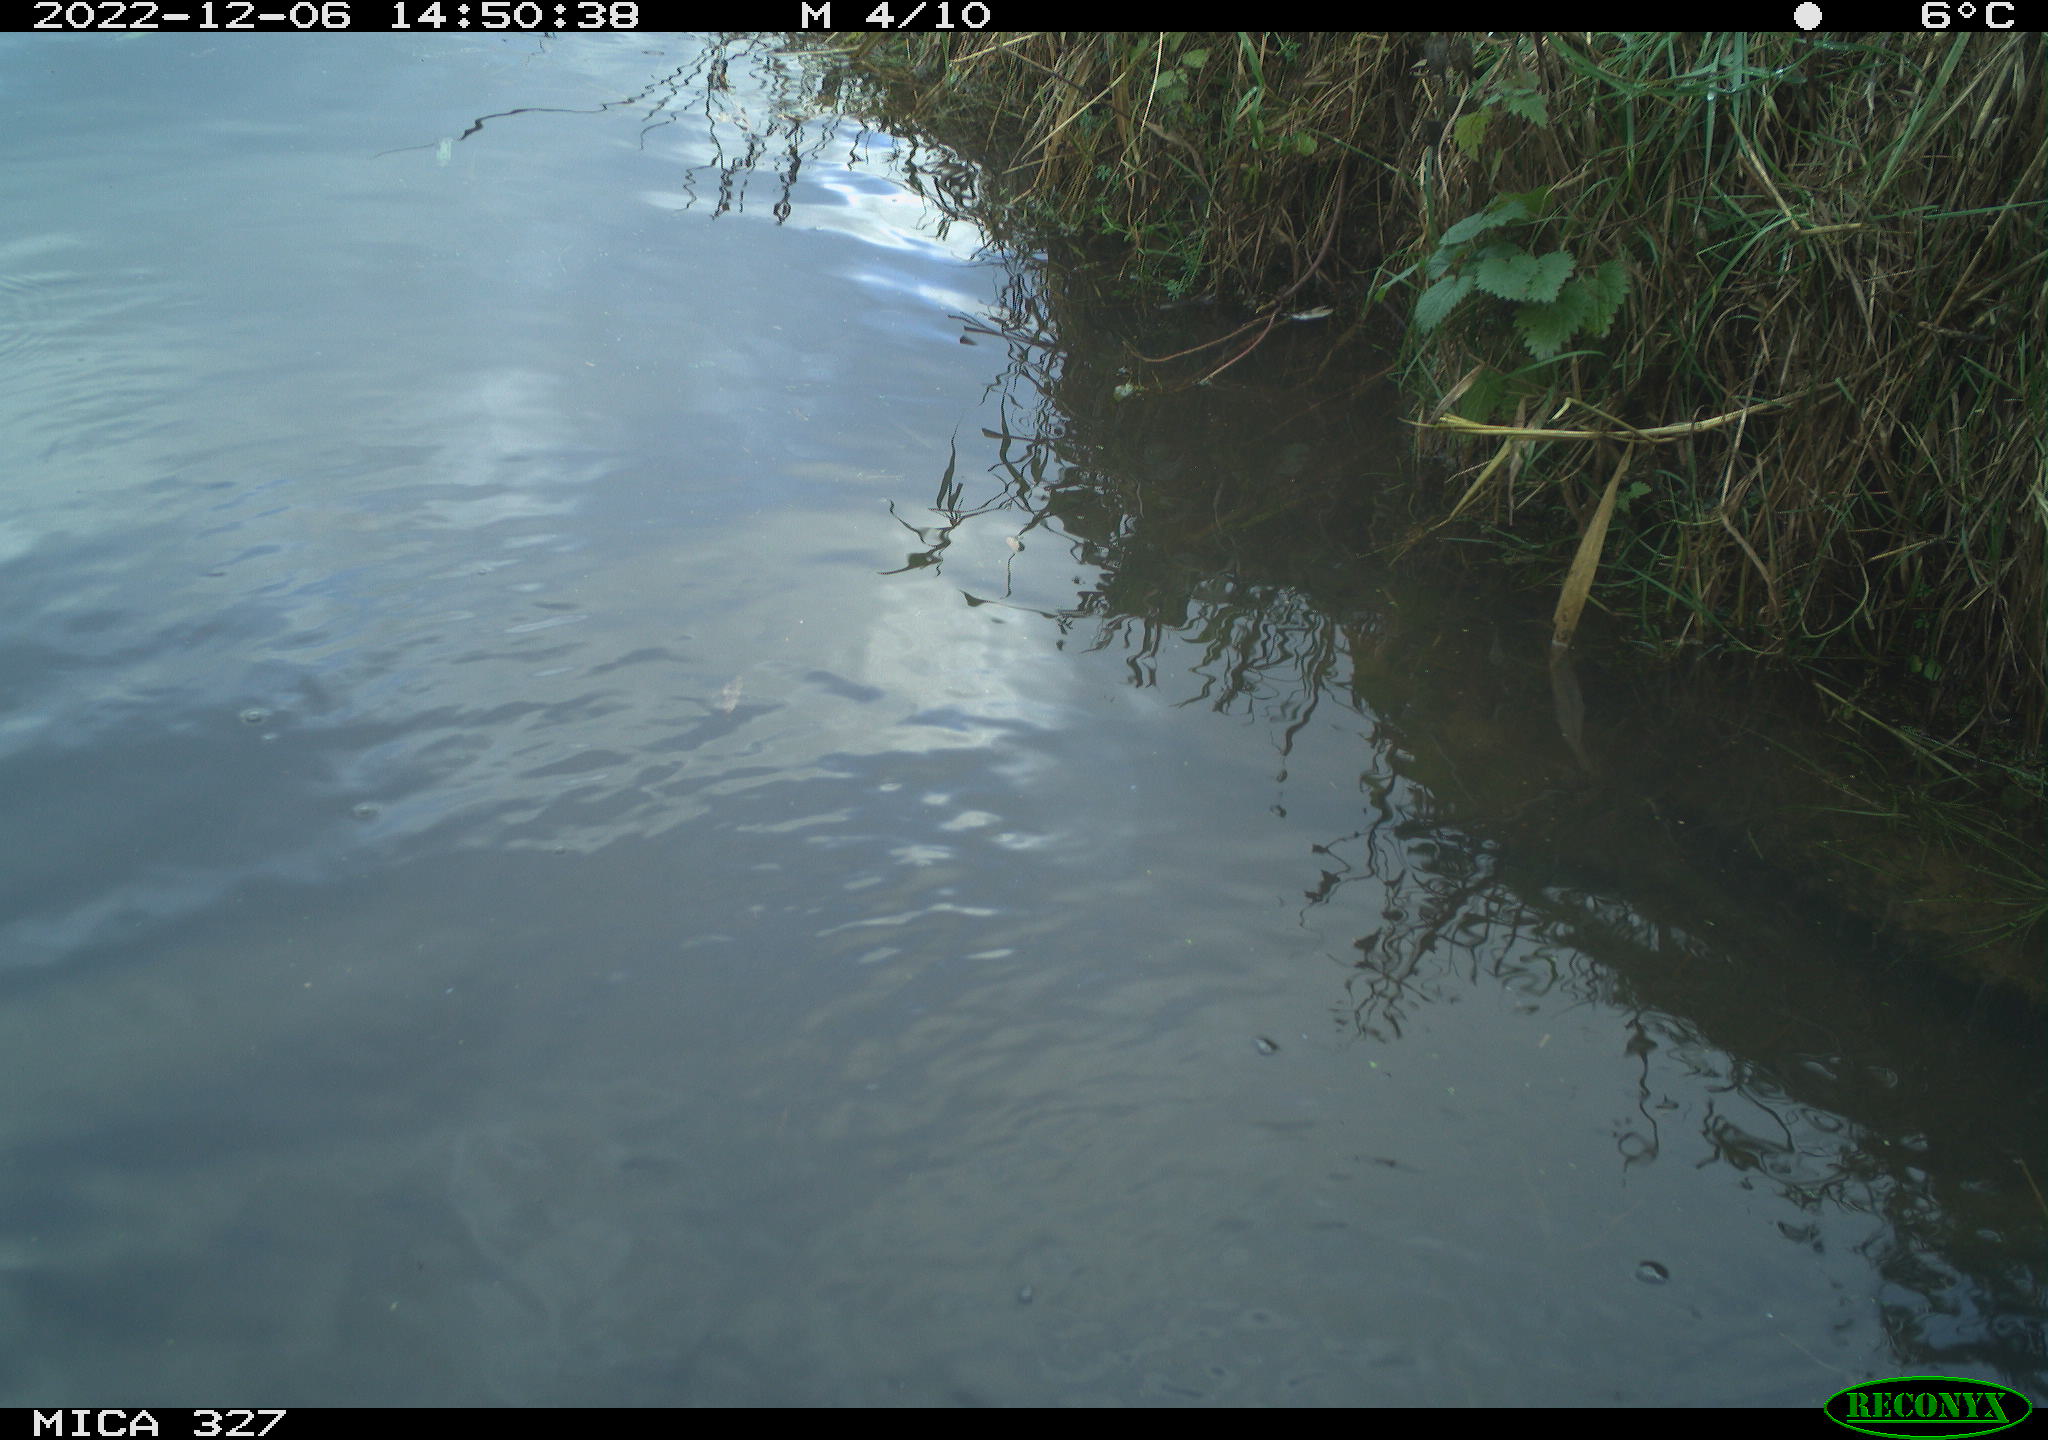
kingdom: Animalia
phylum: Chordata
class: Aves
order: Gruiformes
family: Rallidae
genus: Gallinula
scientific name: Gallinula chloropus
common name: Common moorhen
